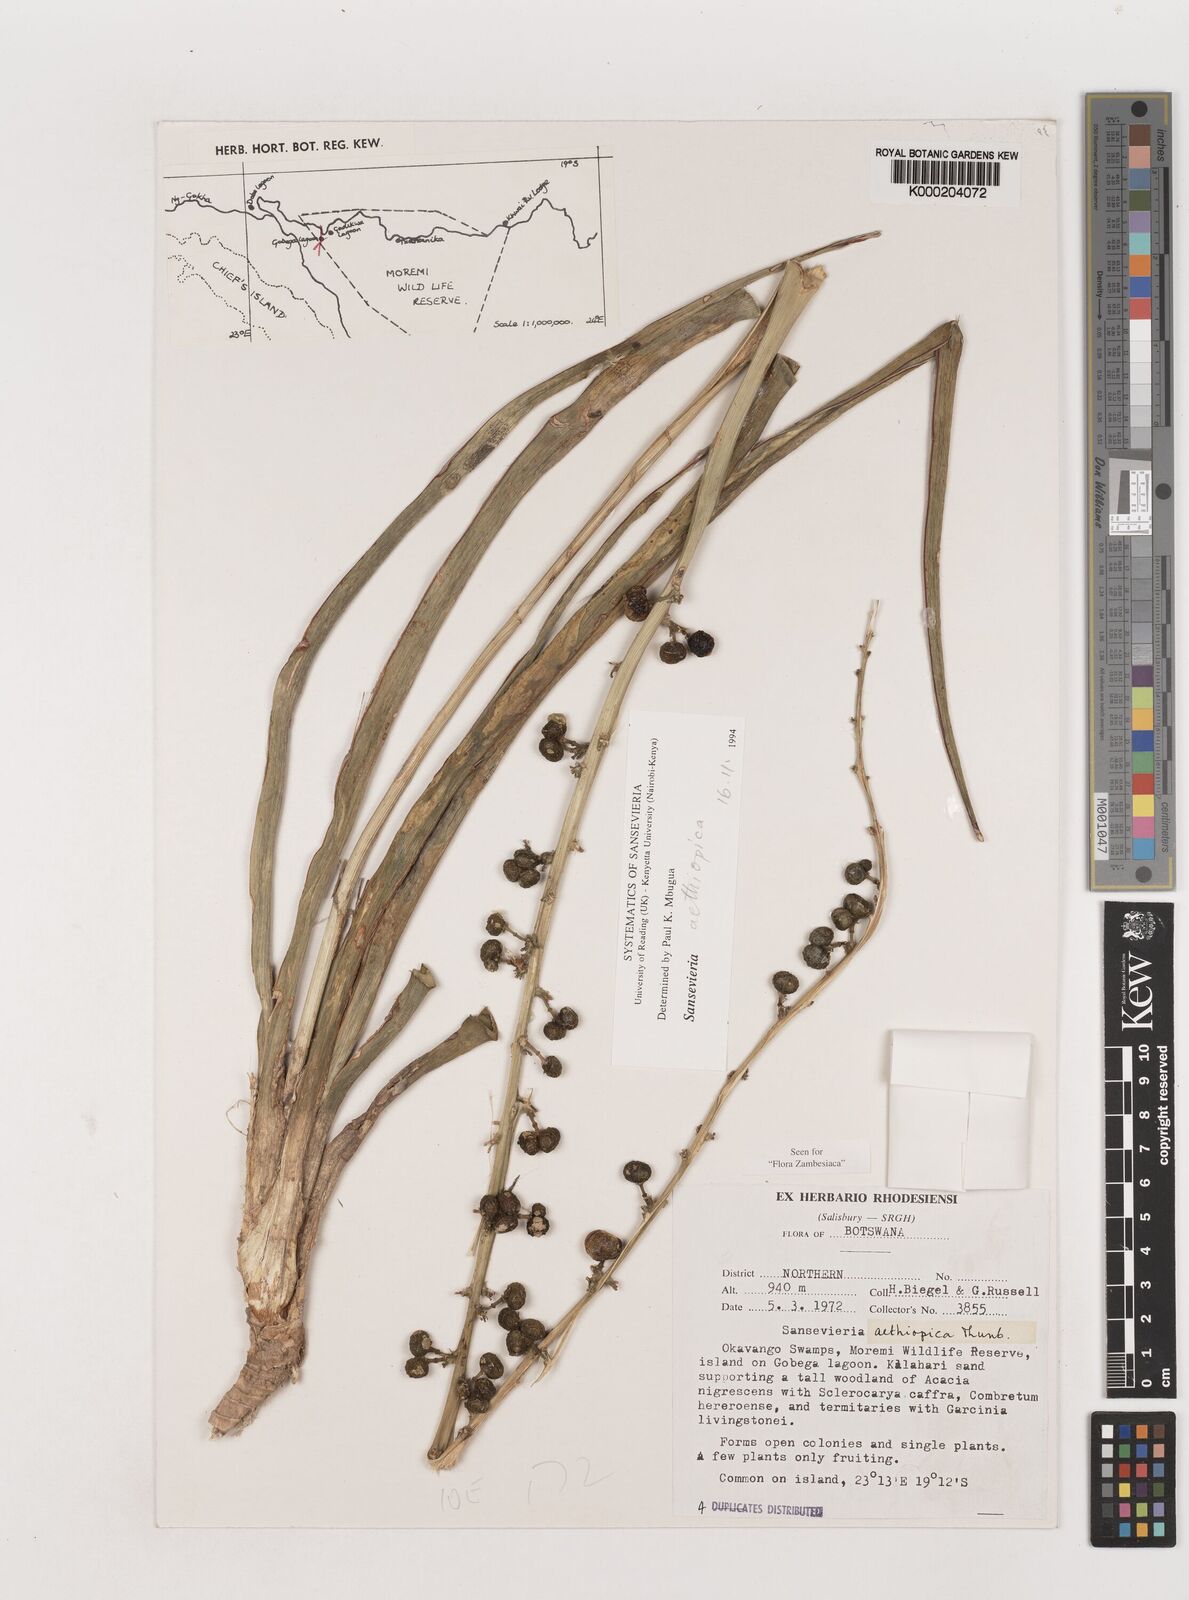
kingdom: Plantae
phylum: Tracheophyta
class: Liliopsida
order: Asparagales
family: Asparagaceae
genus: Dracaena
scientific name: Dracaena aethiopica
